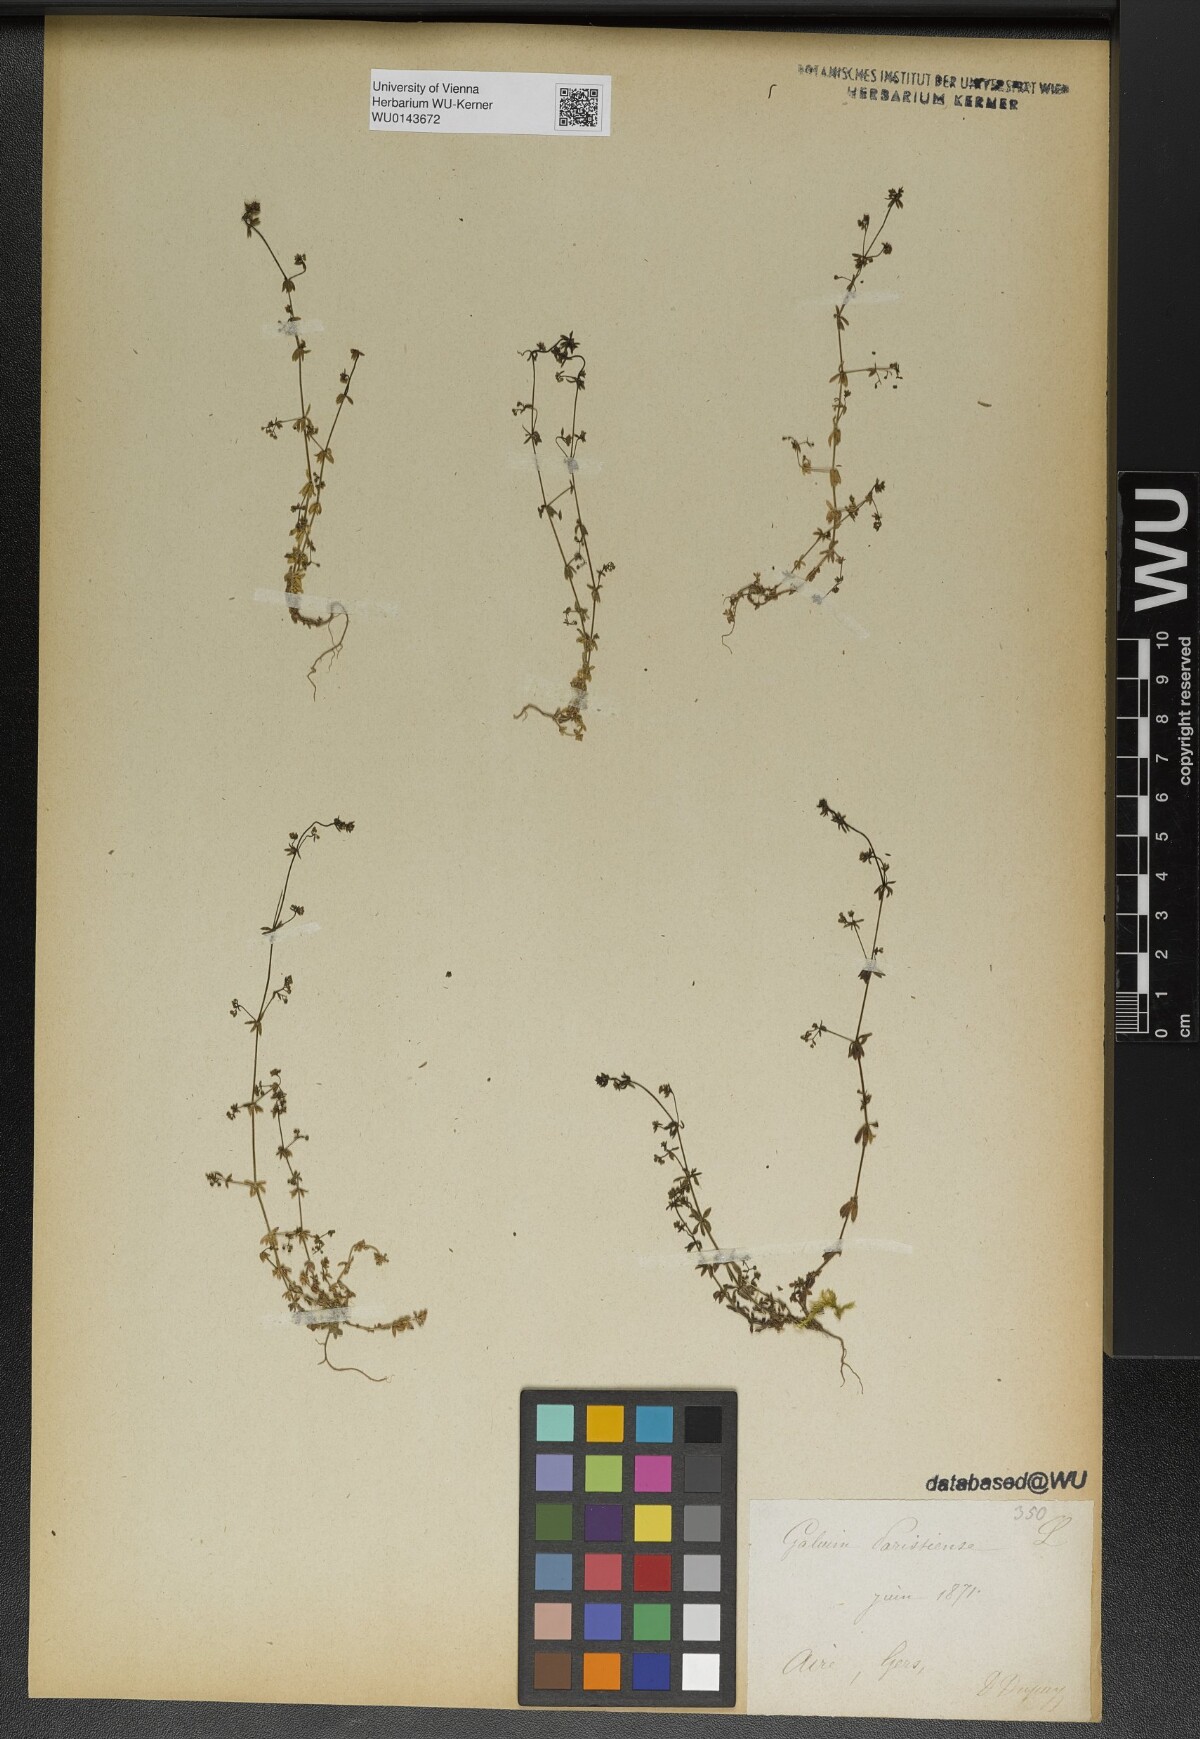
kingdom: Plantae
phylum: Tracheophyta
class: Magnoliopsida
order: Gentianales
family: Rubiaceae
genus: Galium
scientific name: Galium parisiense
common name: Wall bedstraw
